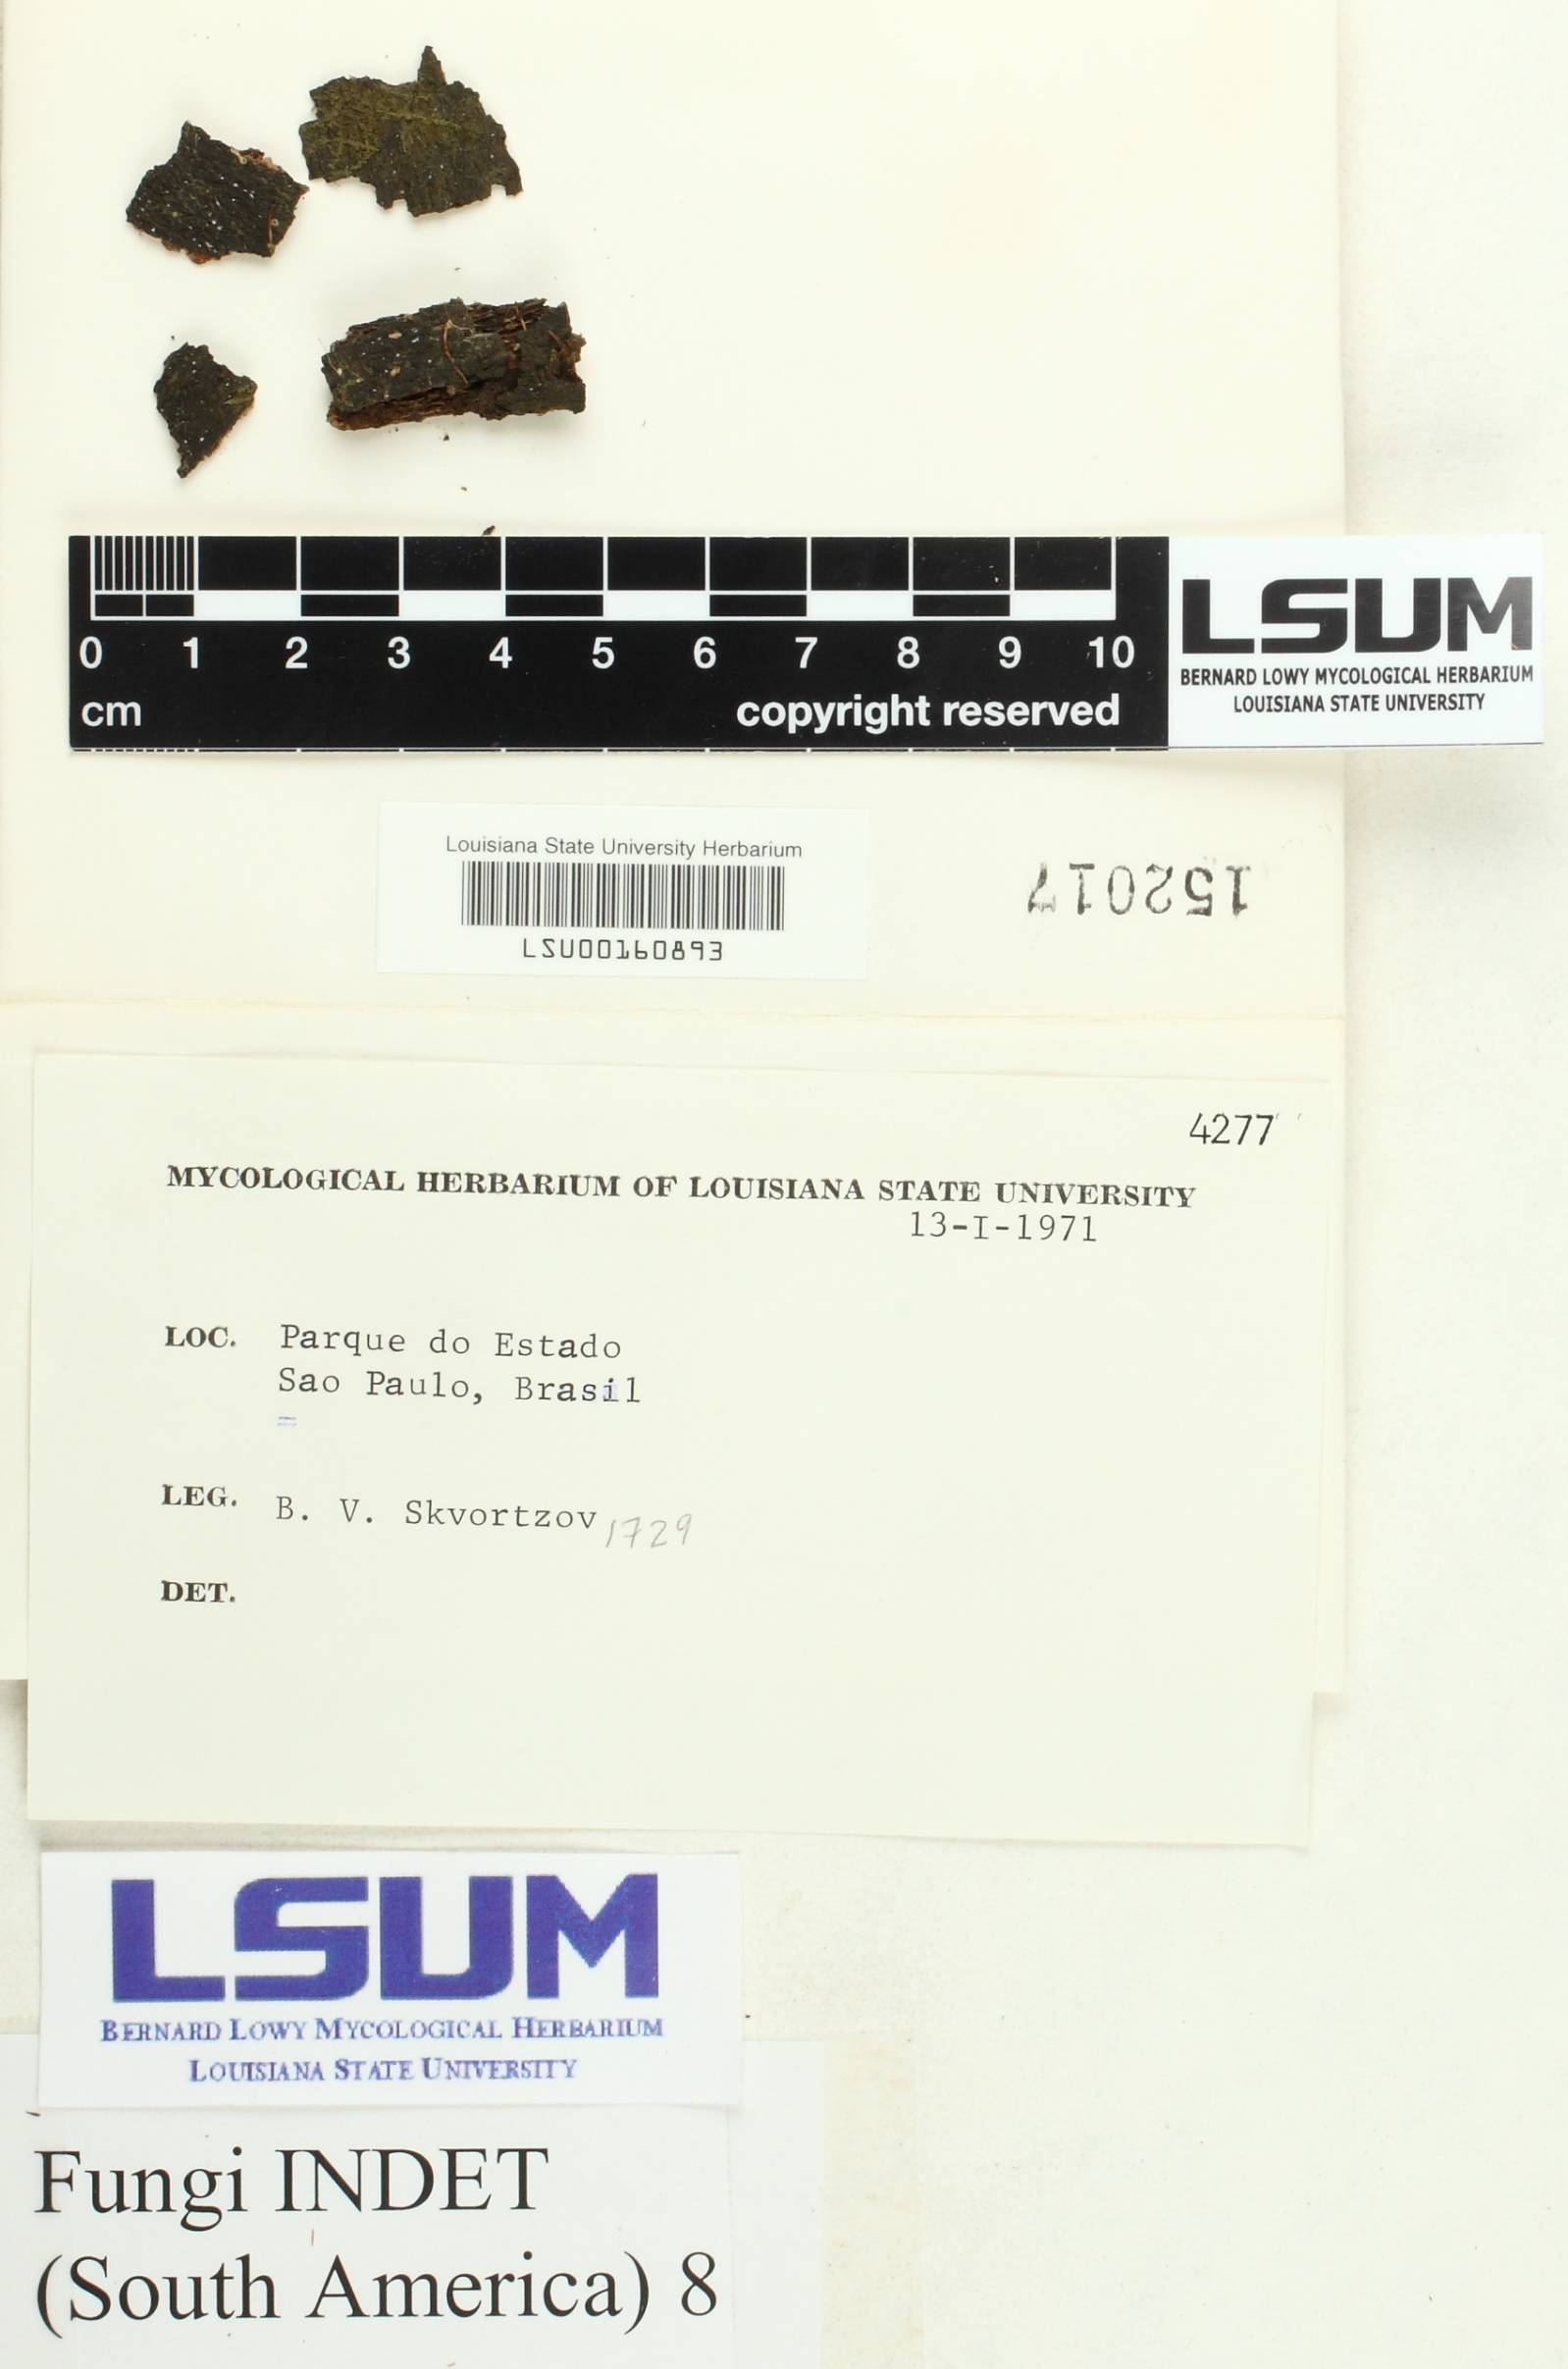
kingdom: Fungi
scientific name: Fungi
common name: Fungi
